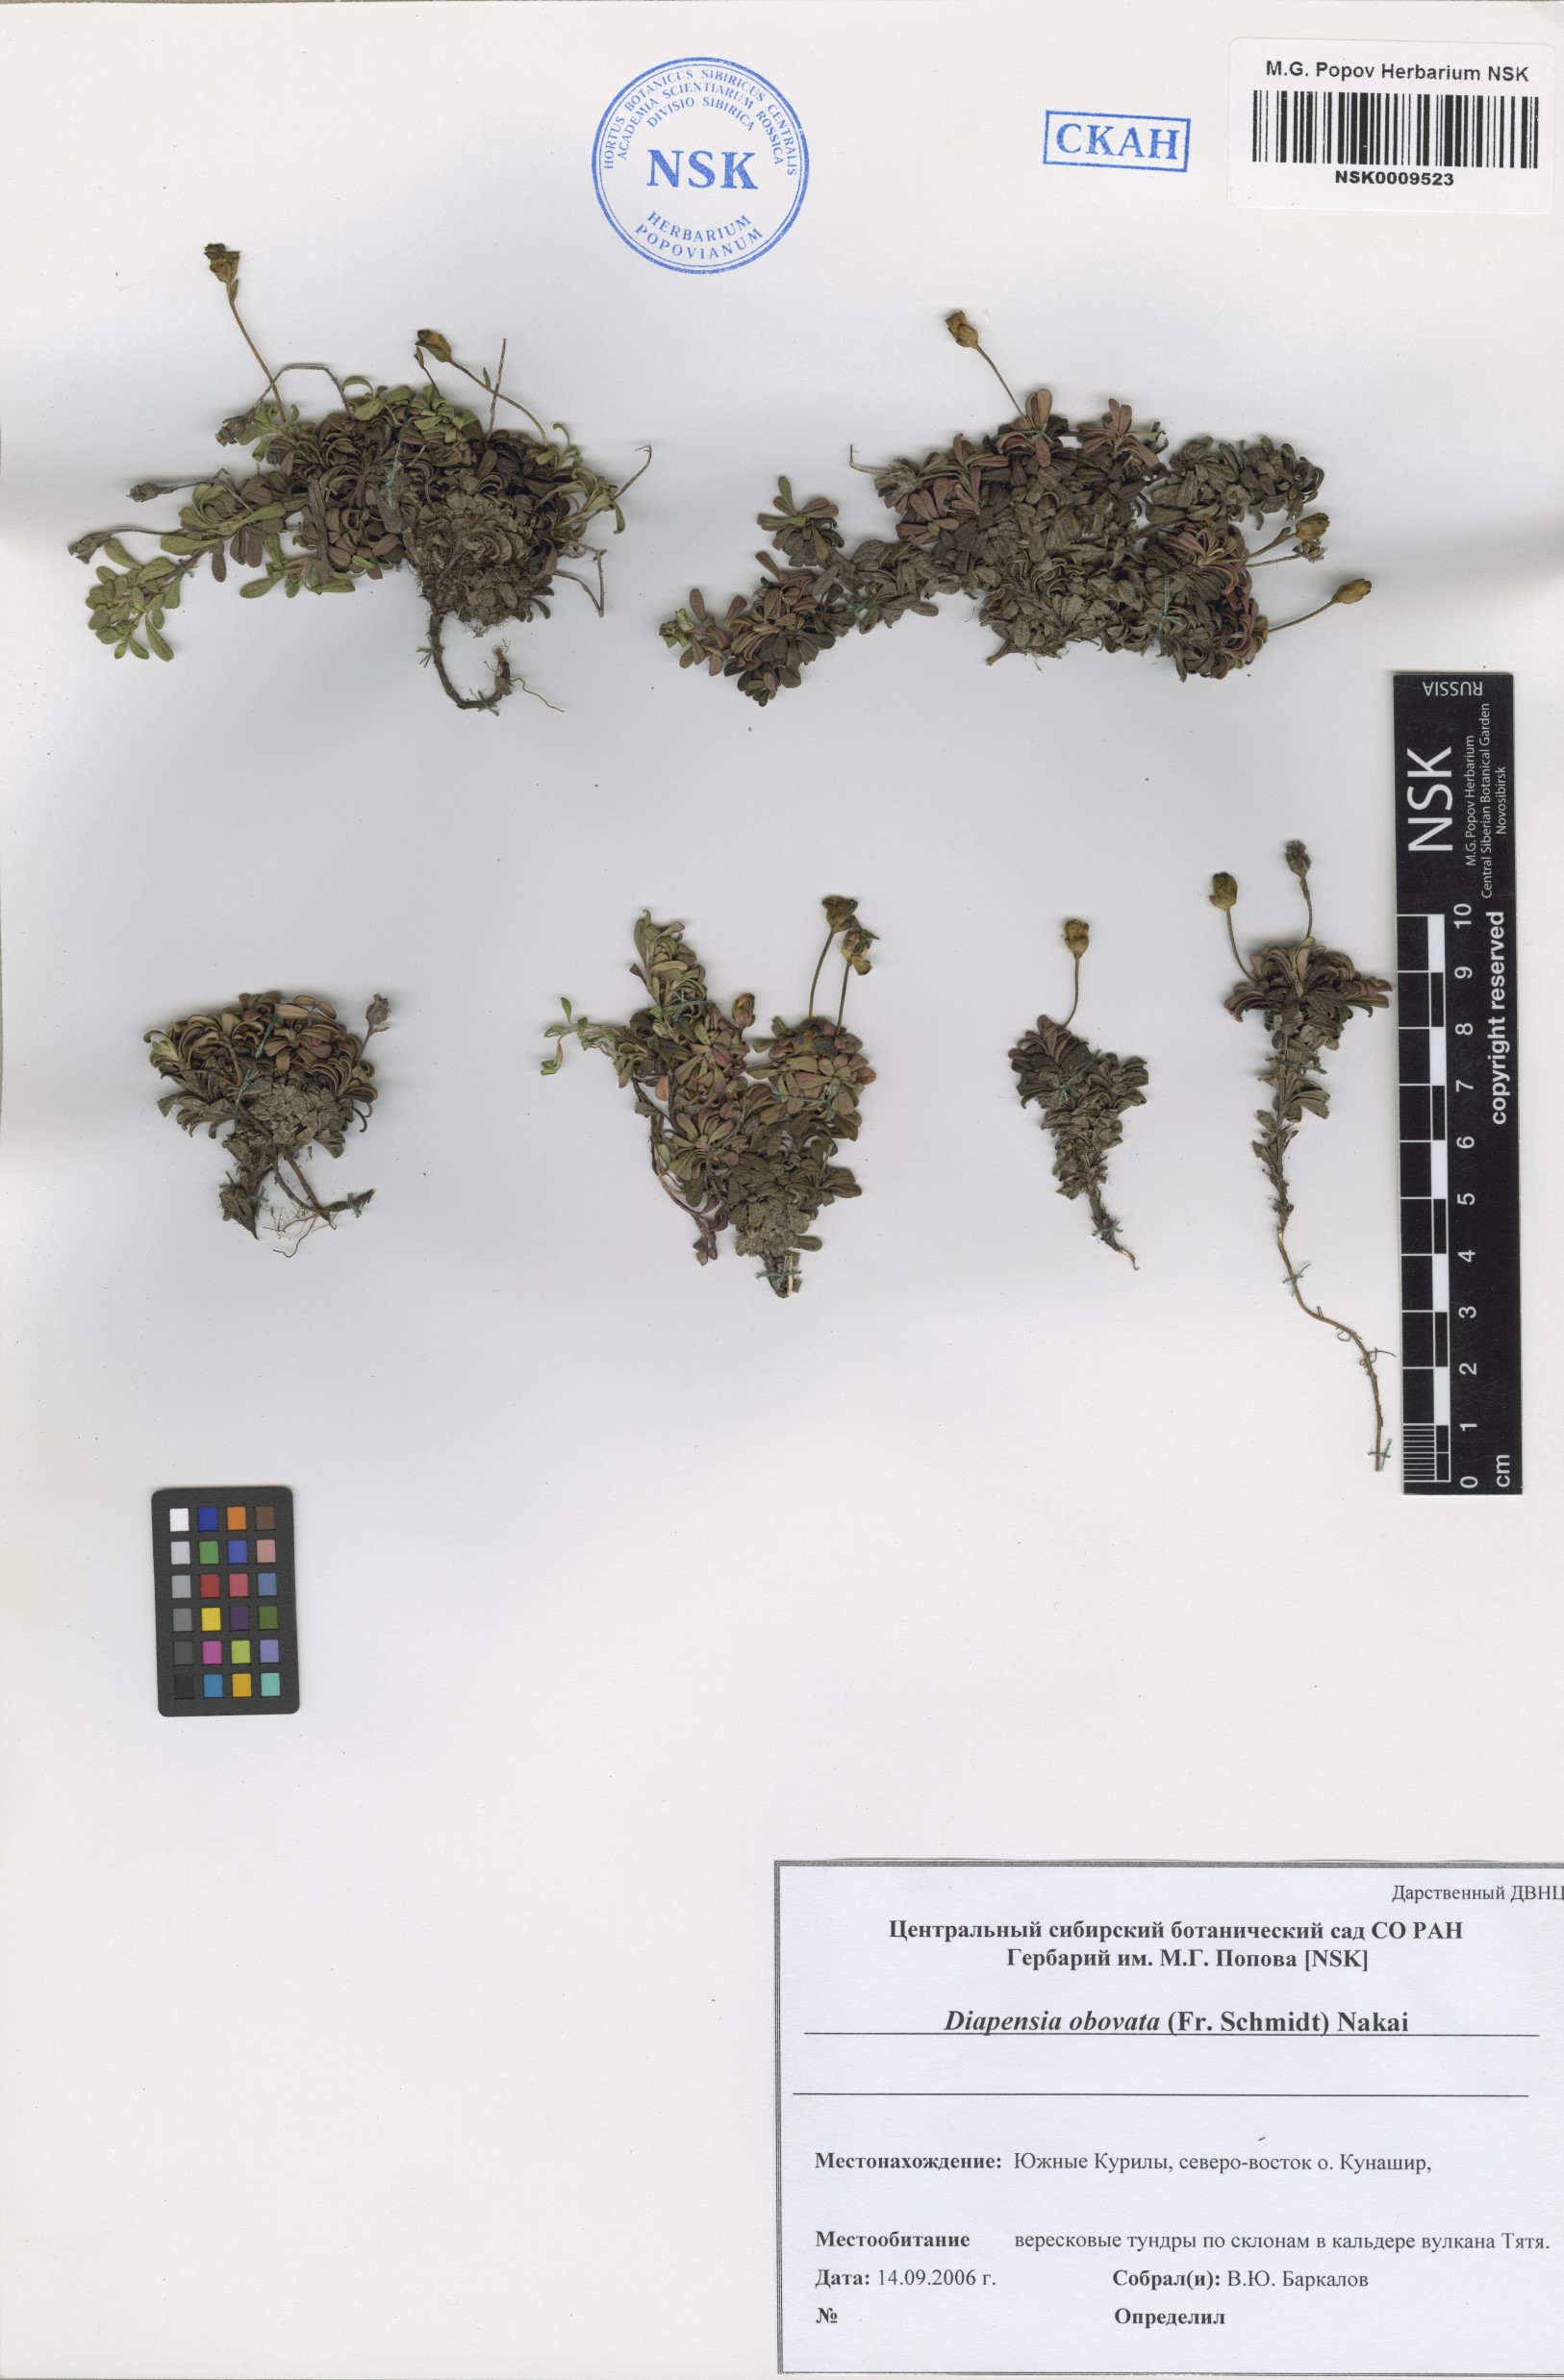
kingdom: Plantae
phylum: Tracheophyta
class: Magnoliopsida
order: Ericales
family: Diapensiaceae
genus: Diapensia
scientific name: Diapensia obovata
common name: Alaska diapensia
